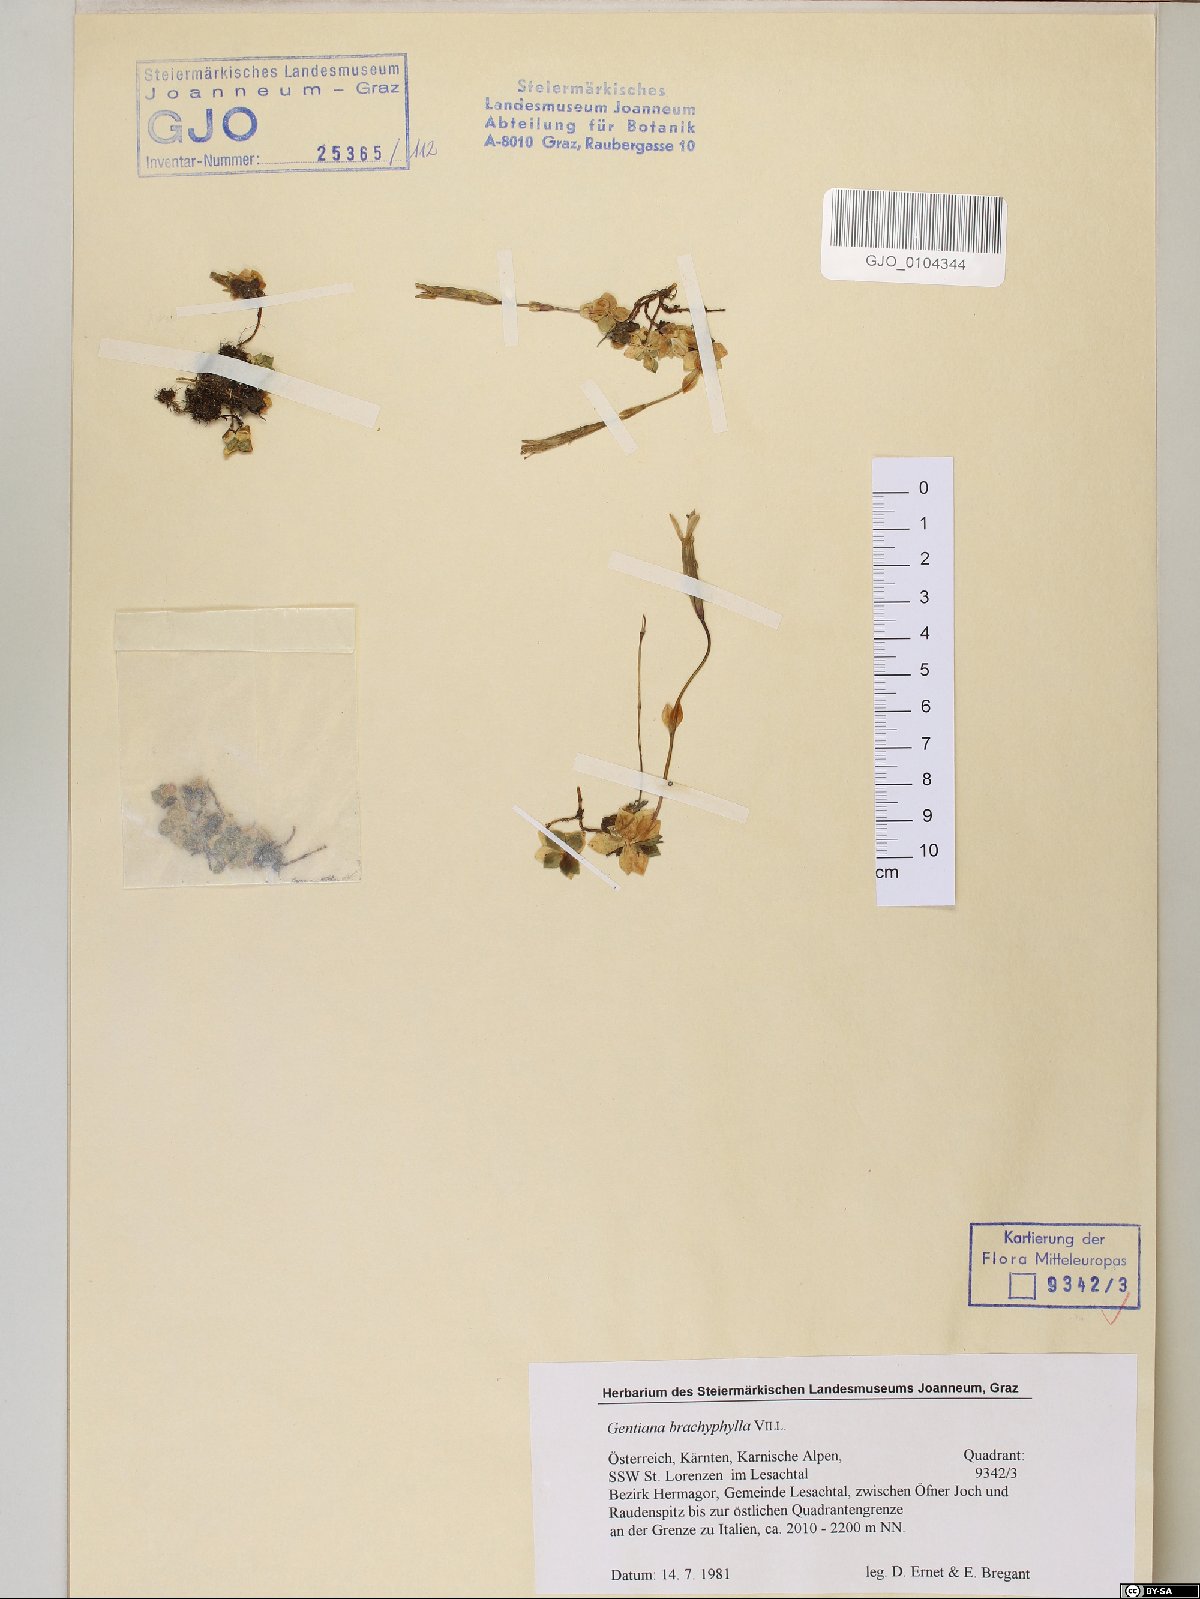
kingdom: Plantae
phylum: Tracheophyta
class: Magnoliopsida
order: Gentianales
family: Gentianaceae
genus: Gentiana
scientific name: Gentiana brachyphylla
